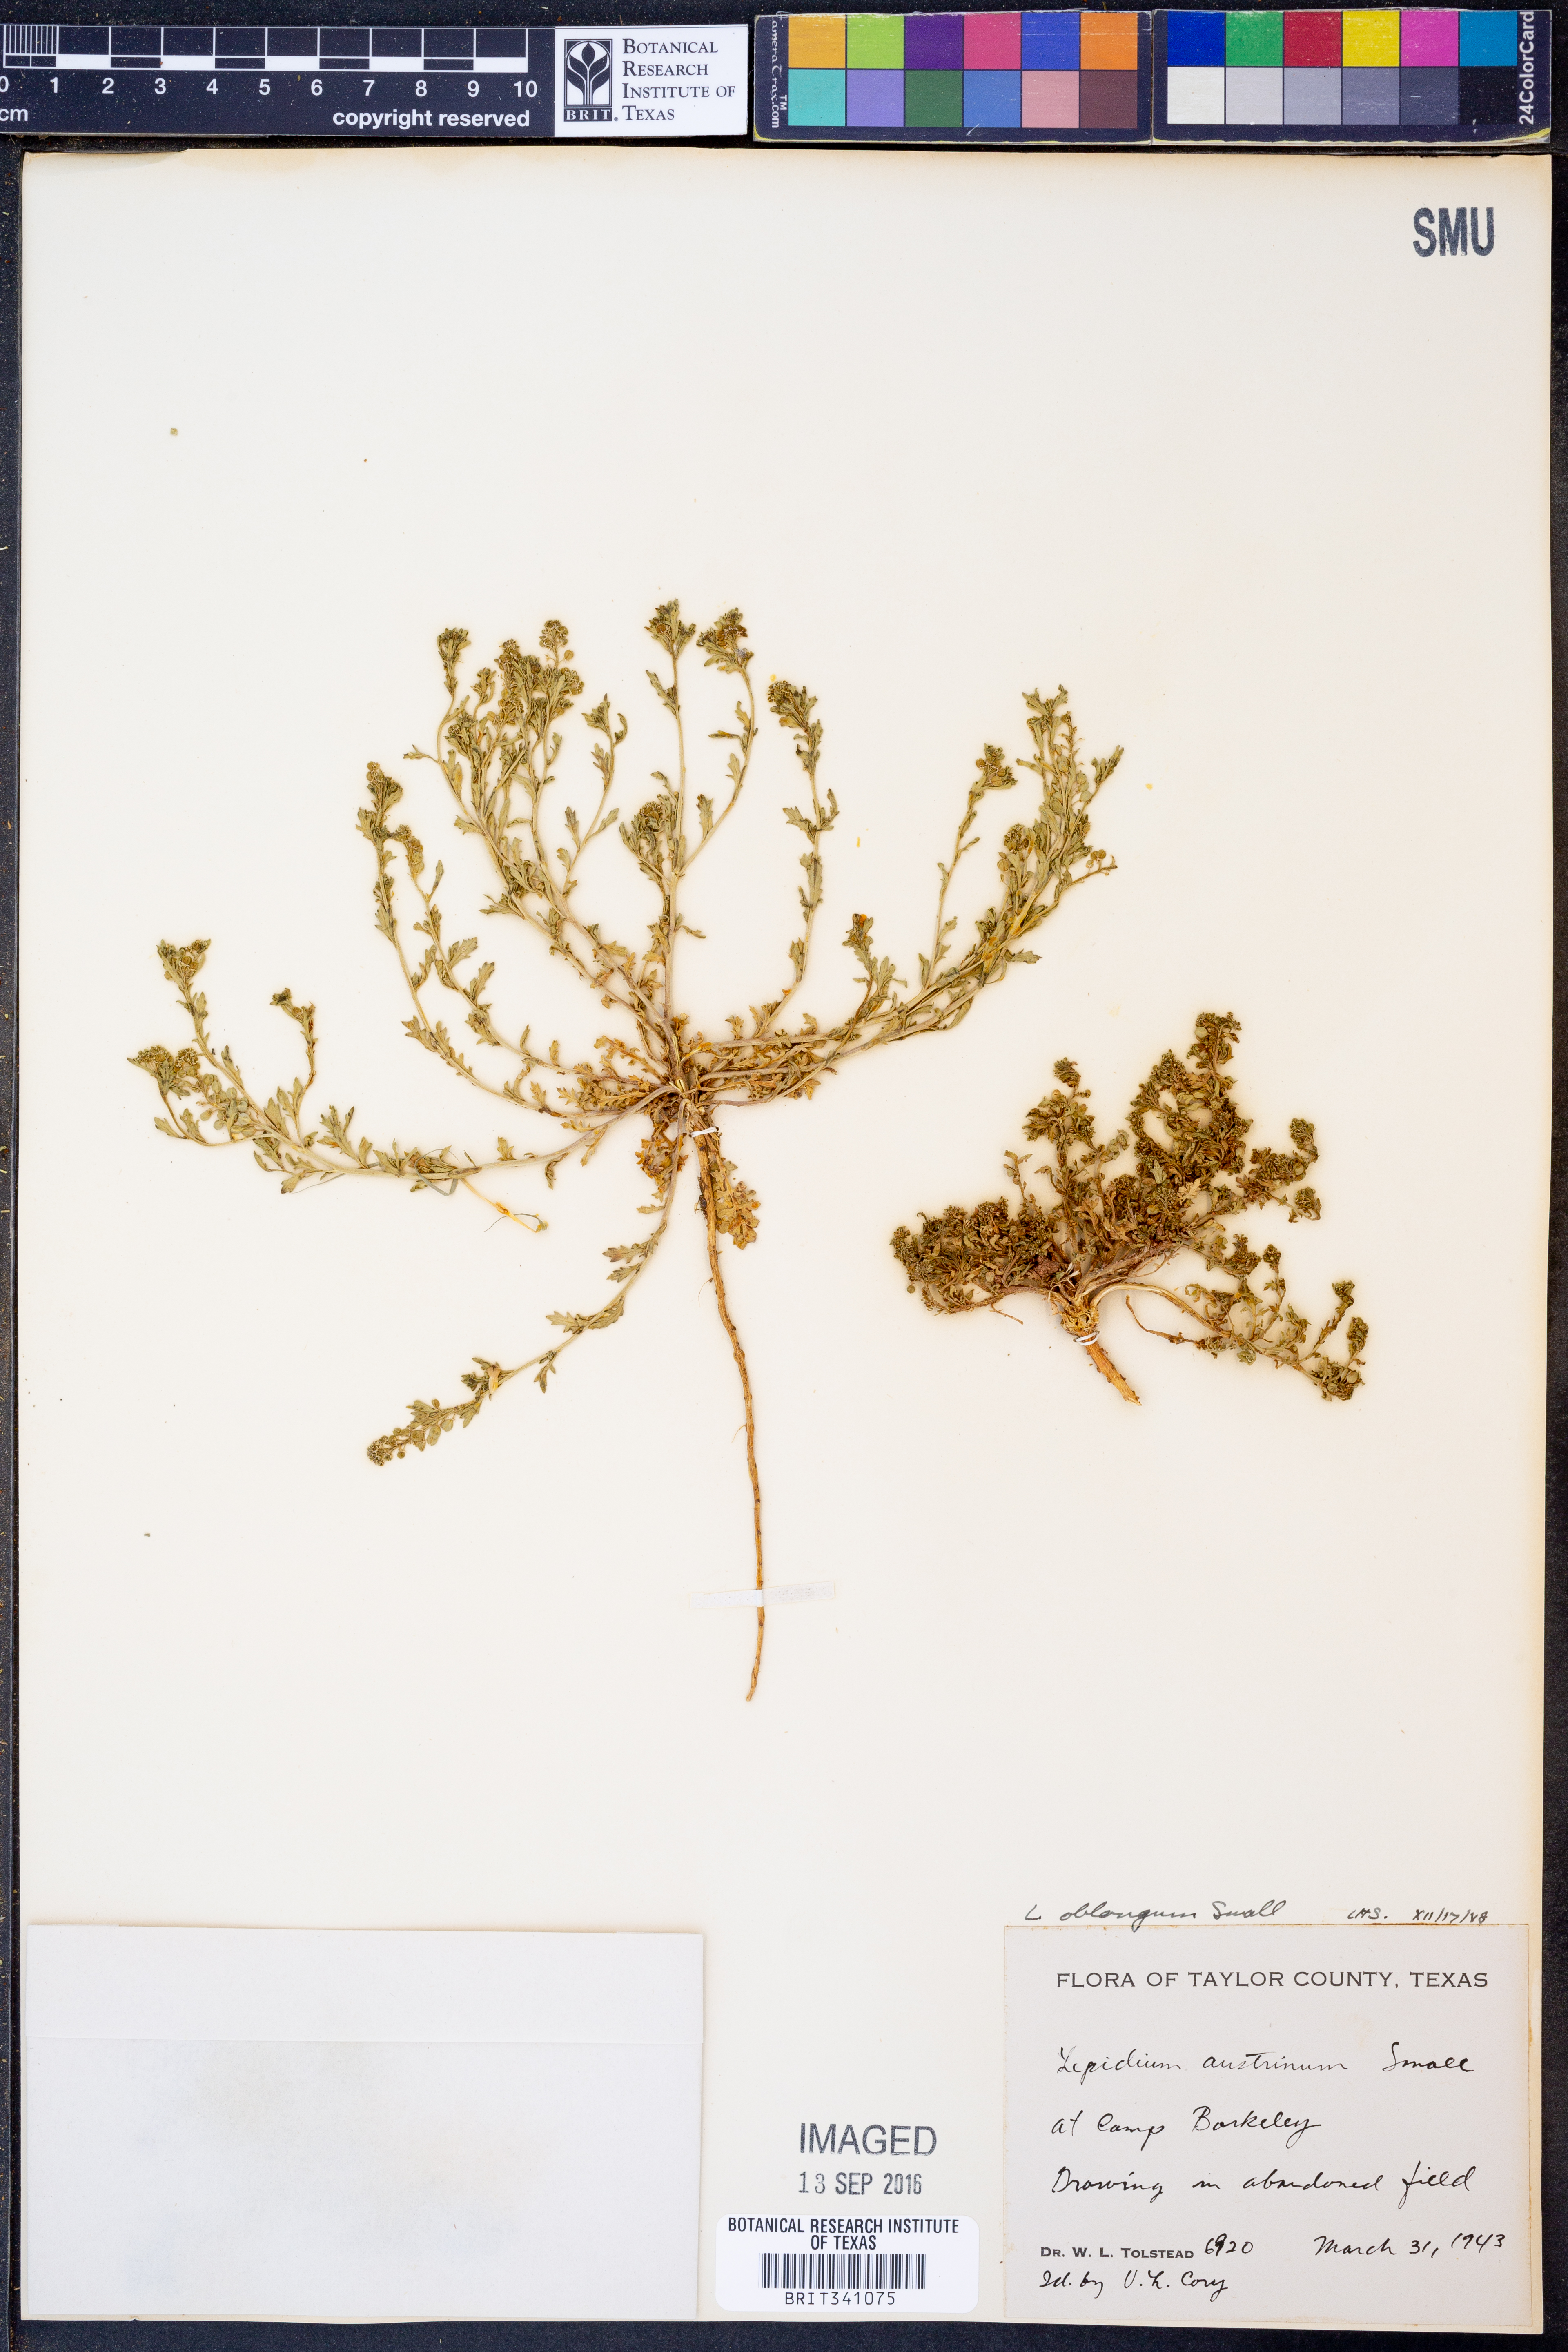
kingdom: Plantae
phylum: Tracheophyta
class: Magnoliopsida
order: Brassicales
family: Brassicaceae
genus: Lepidium
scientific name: Lepidium oblongum
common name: Veiny pepperweed
